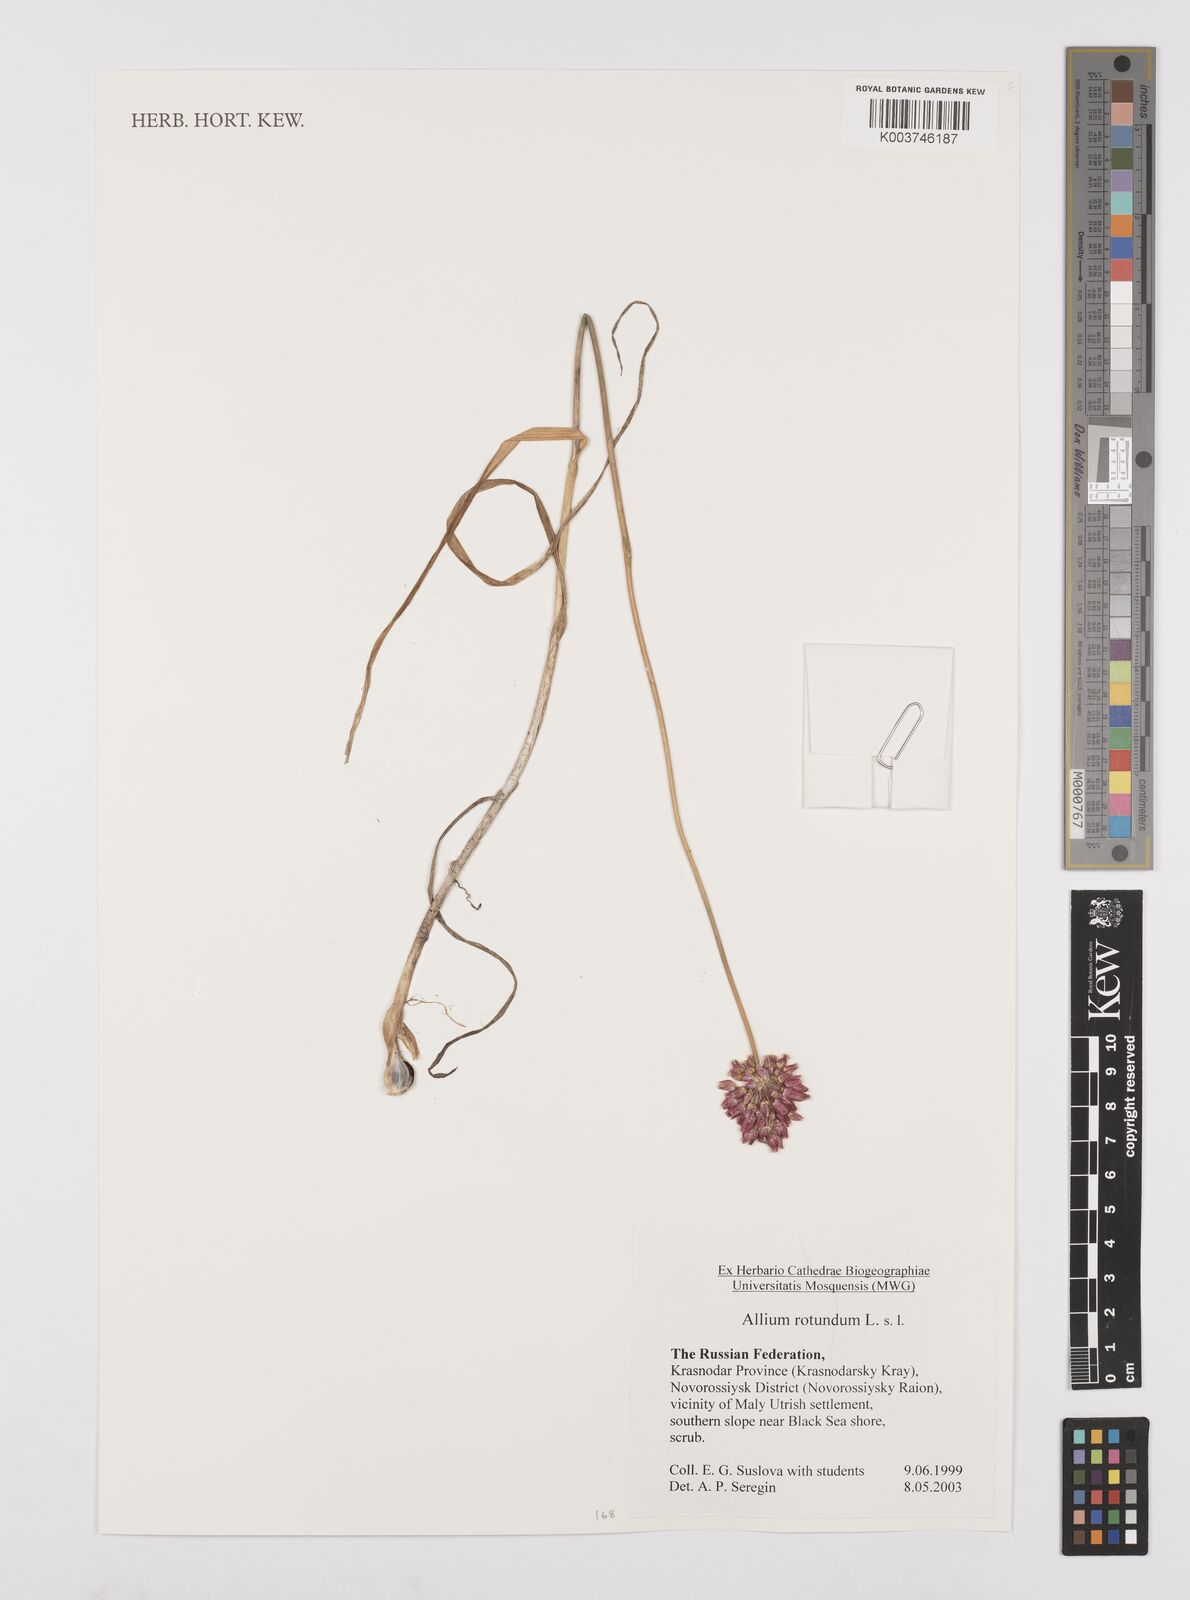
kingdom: Plantae
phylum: Tracheophyta
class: Liliopsida
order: Asparagales
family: Amaryllidaceae
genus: Allium
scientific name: Allium rotundum
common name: Sand leek
